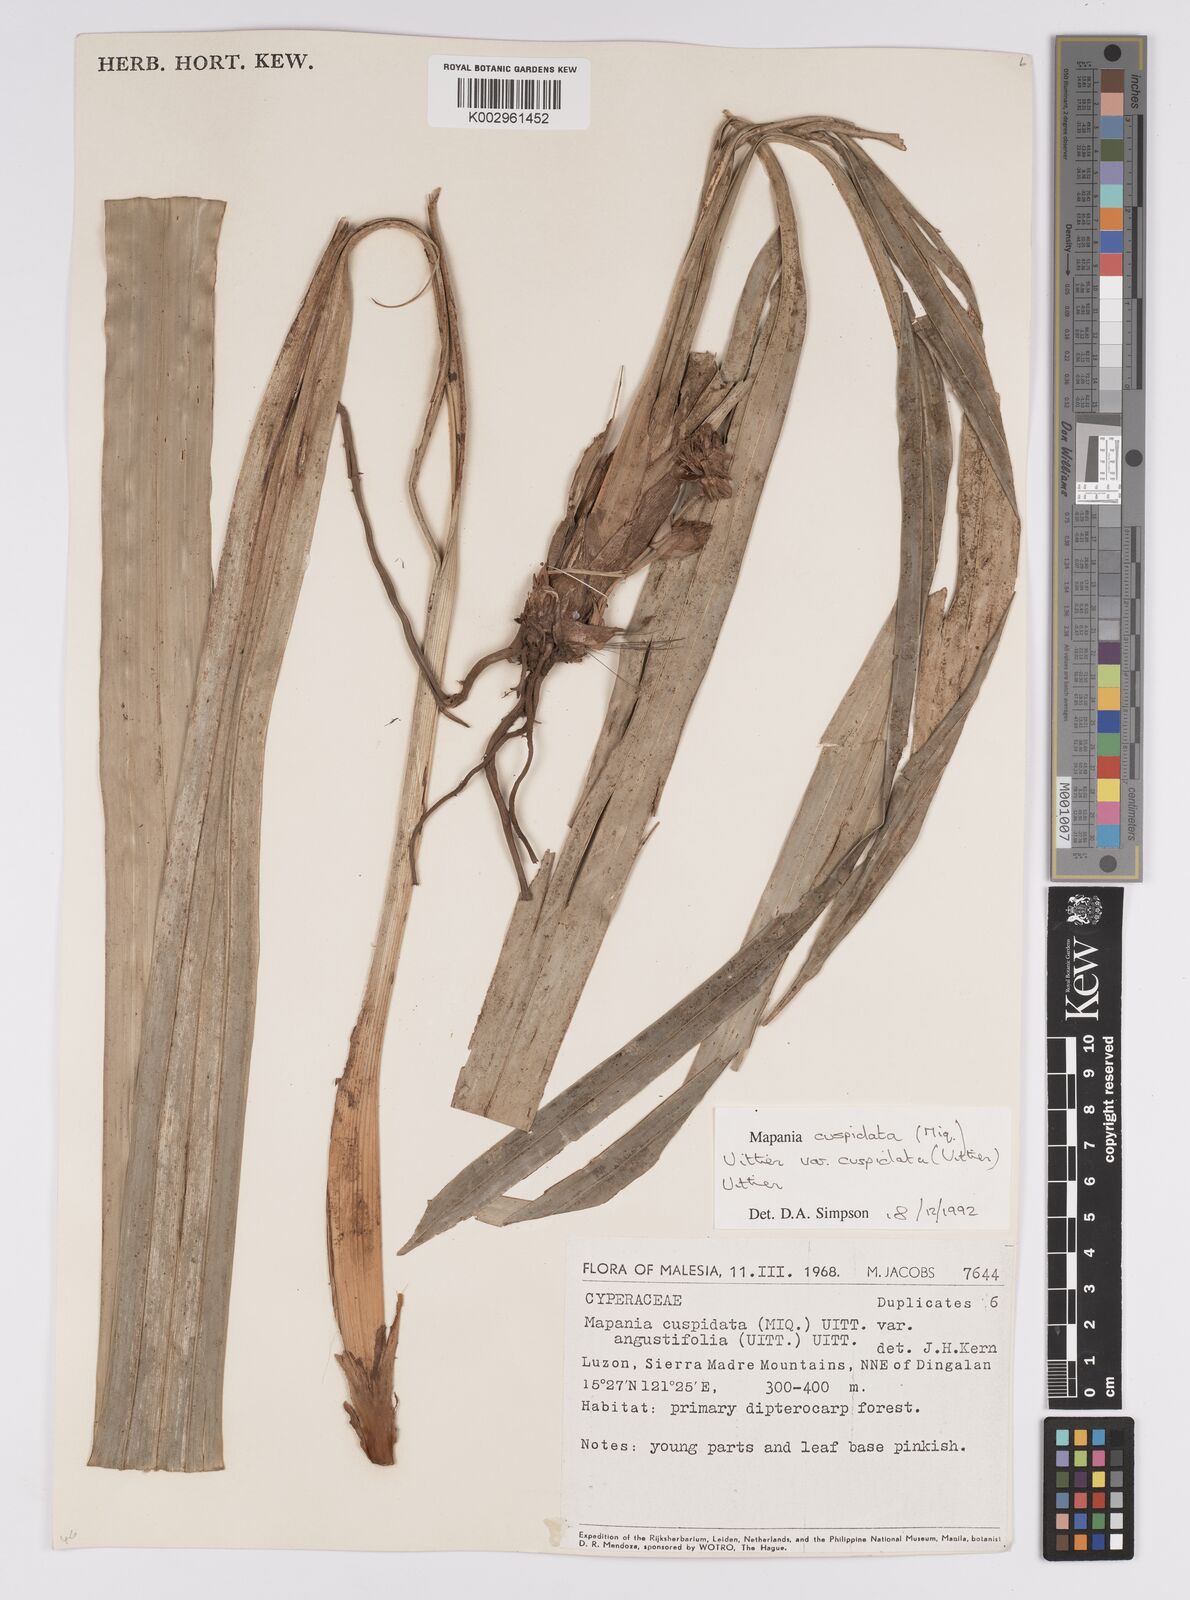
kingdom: Plantae
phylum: Tracheophyta
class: Liliopsida
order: Poales
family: Cyperaceae
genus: Mapania
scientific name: Mapania cuspidata
